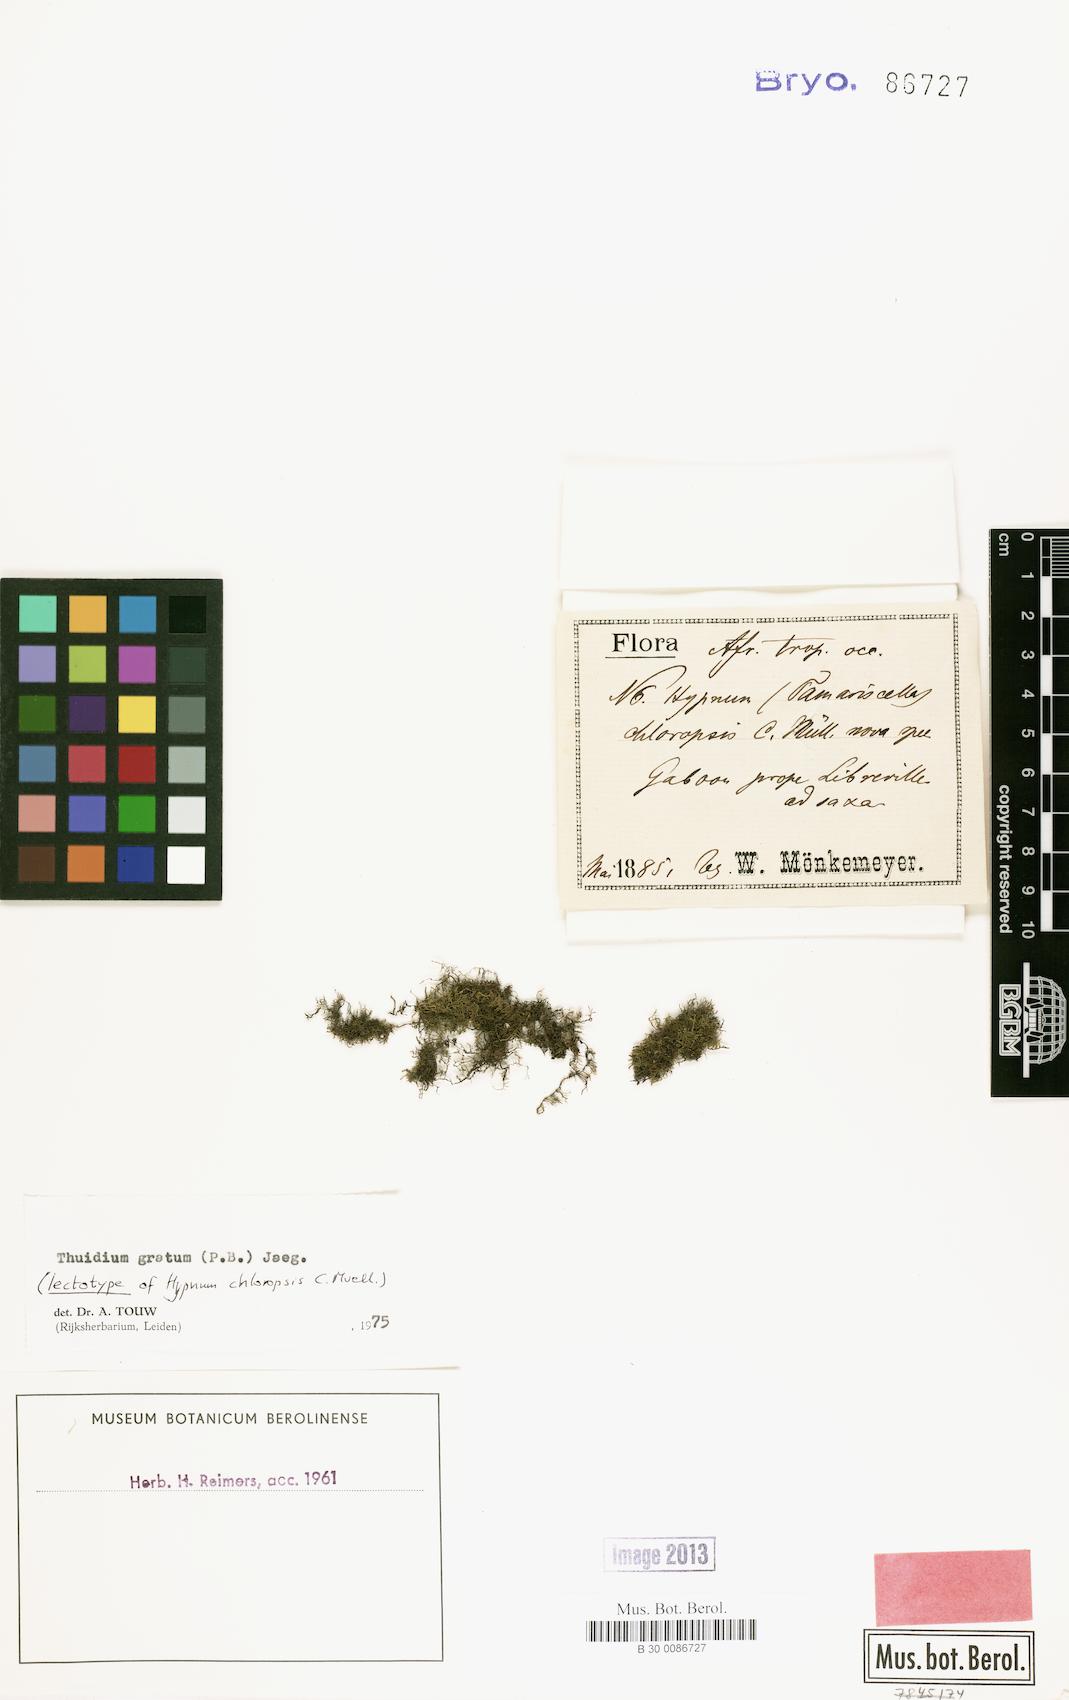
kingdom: Plantae
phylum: Bryophyta
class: Bryopsida
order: Hypnales
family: Thuidiaceae
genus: Pelekium
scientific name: Pelekium gratum
